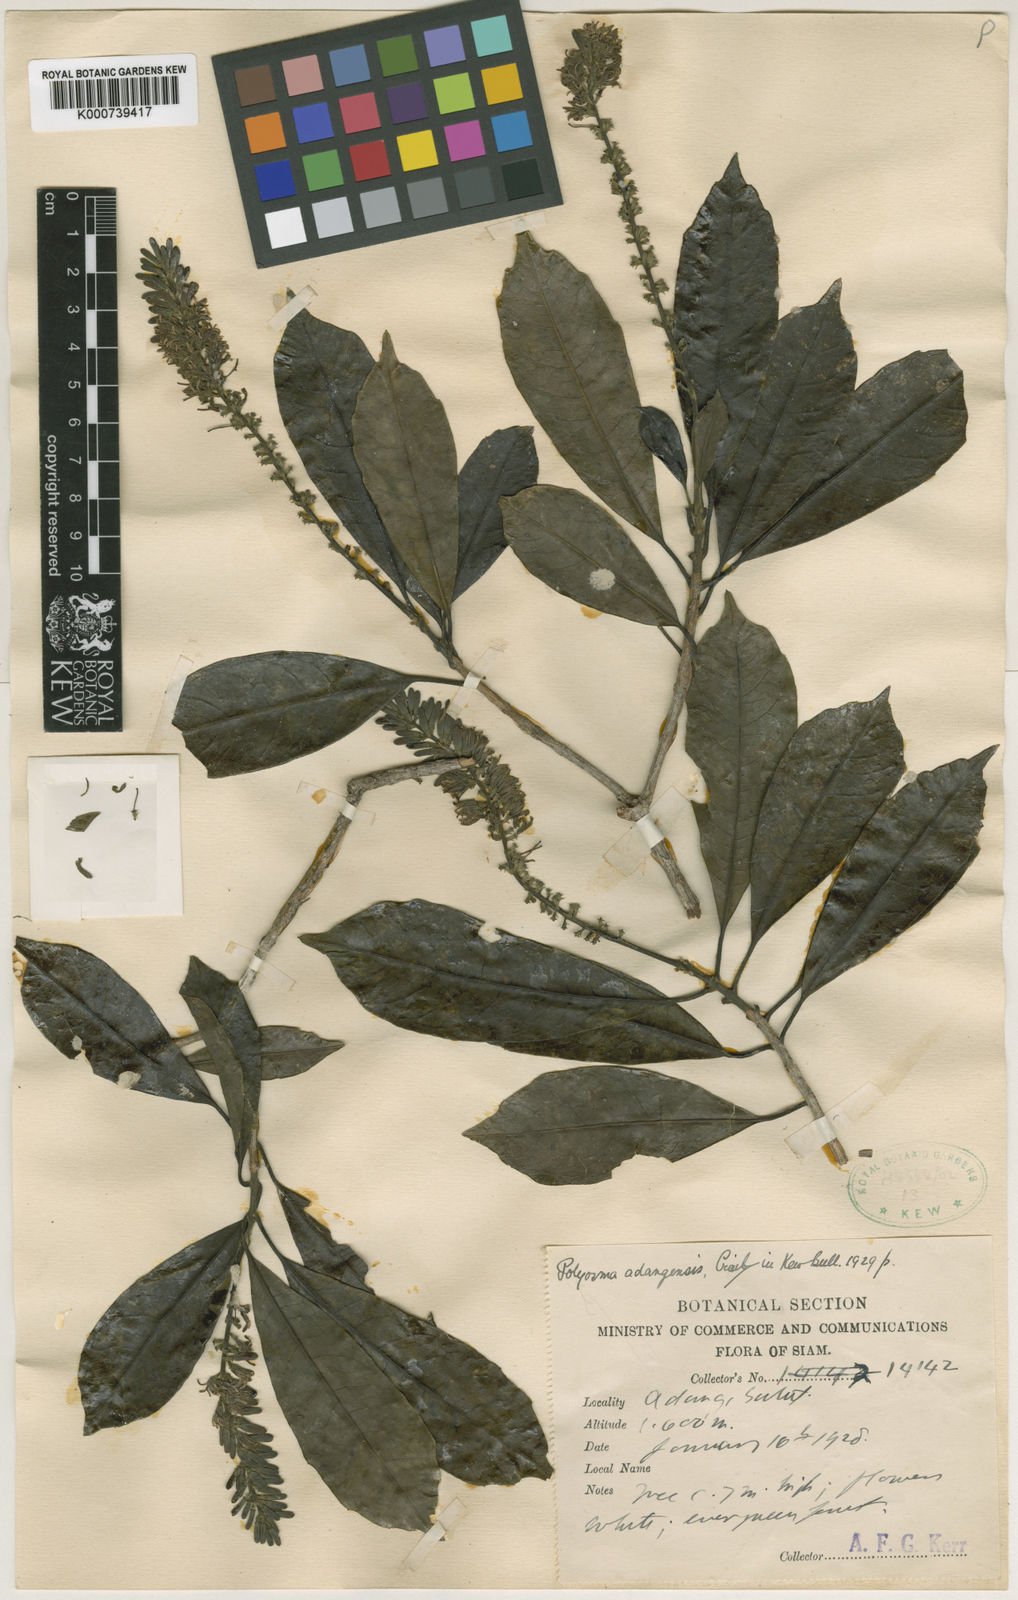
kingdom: Plantae
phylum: Tracheophyta
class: Magnoliopsida
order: Escalloniales
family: Escalloniaceae
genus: Polyosma
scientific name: Polyosma fragrans
